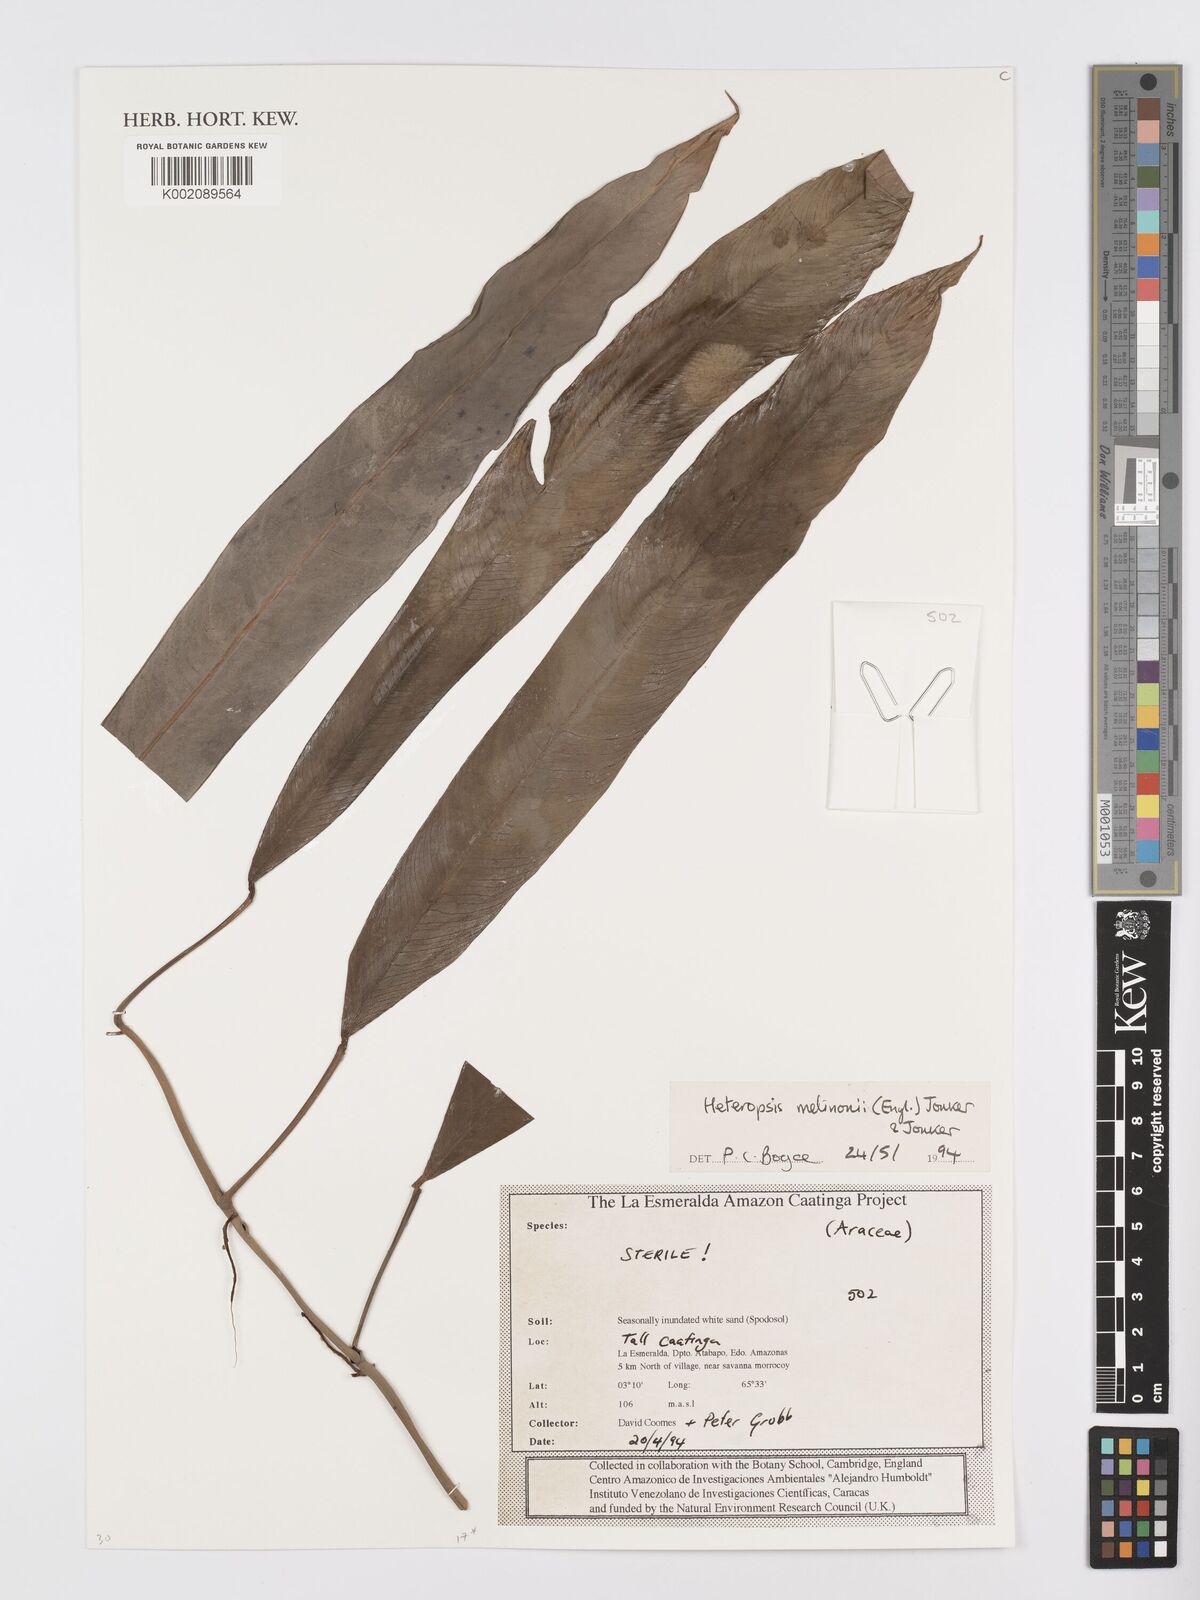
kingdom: Plantae
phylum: Tracheophyta
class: Liliopsida
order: Alismatales
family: Araceae
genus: Heteropsis
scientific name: Heteropsis melinonii
